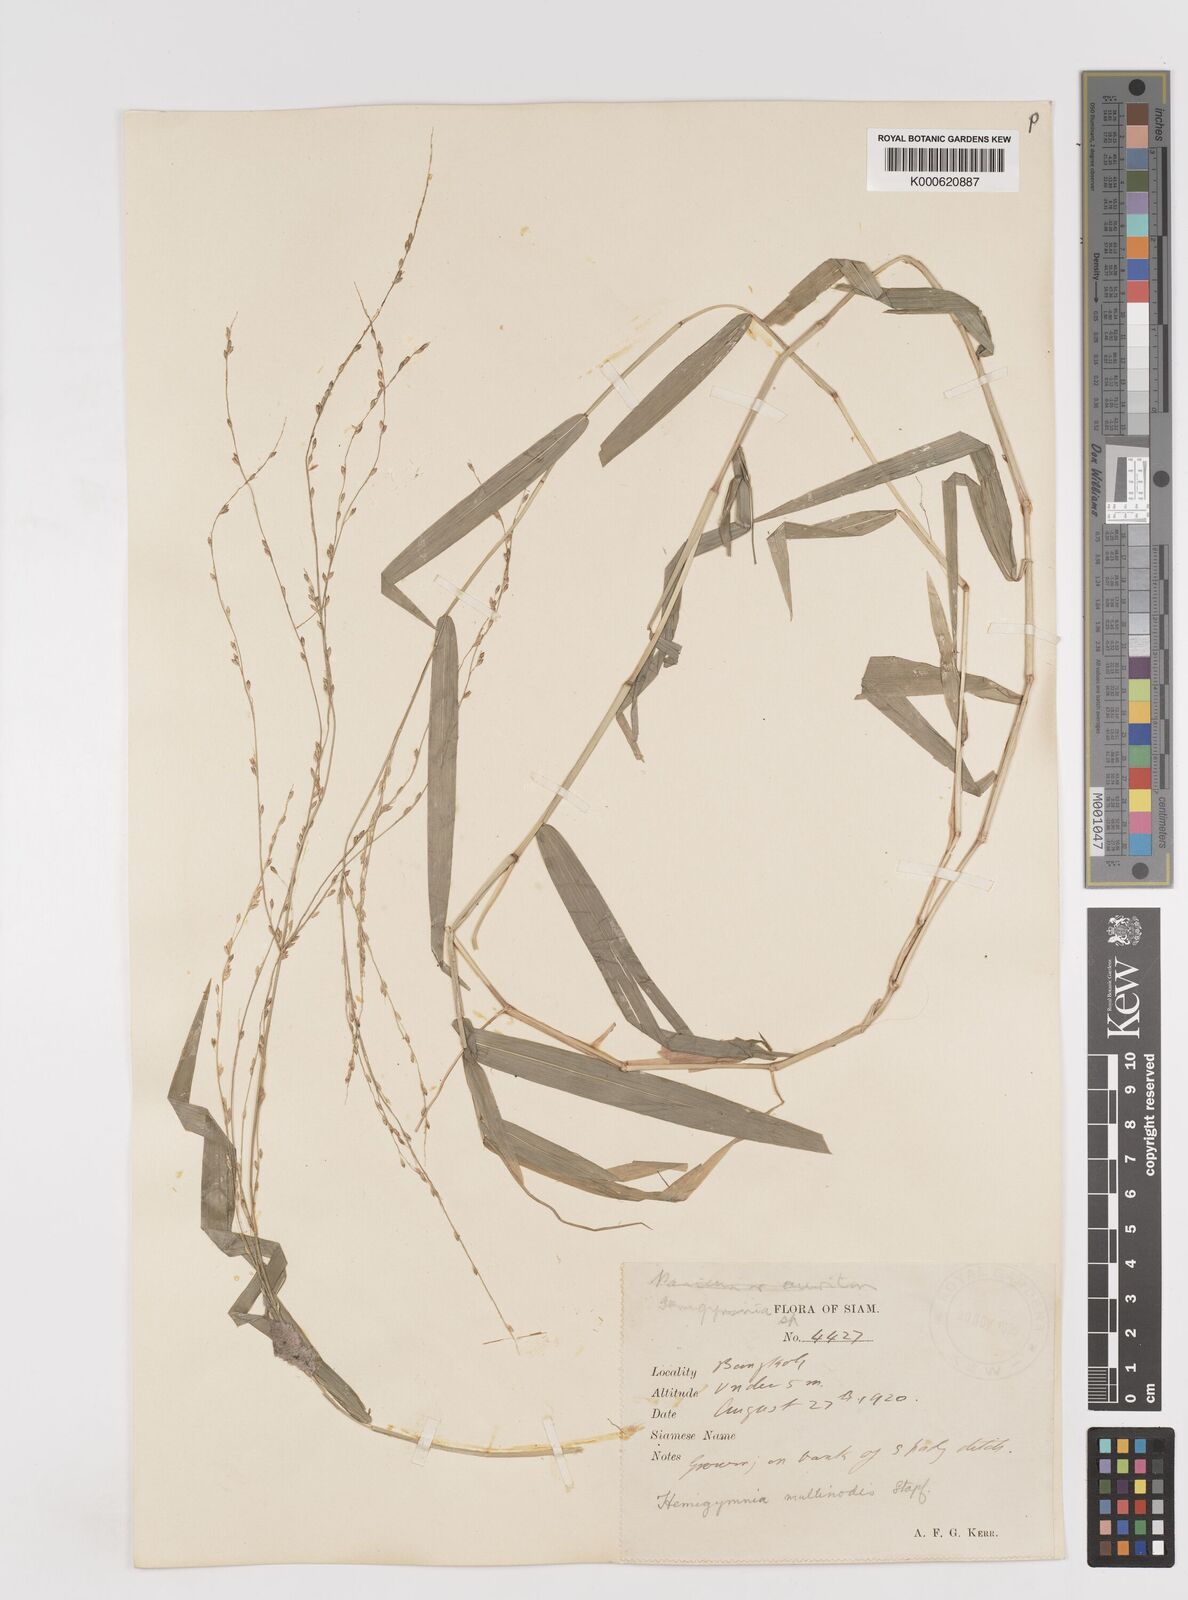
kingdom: Plantae
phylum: Tracheophyta
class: Liliopsida
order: Poales
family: Poaceae
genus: Ottochloa
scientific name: Ottochloa nodosa
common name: Slender-panic grass
